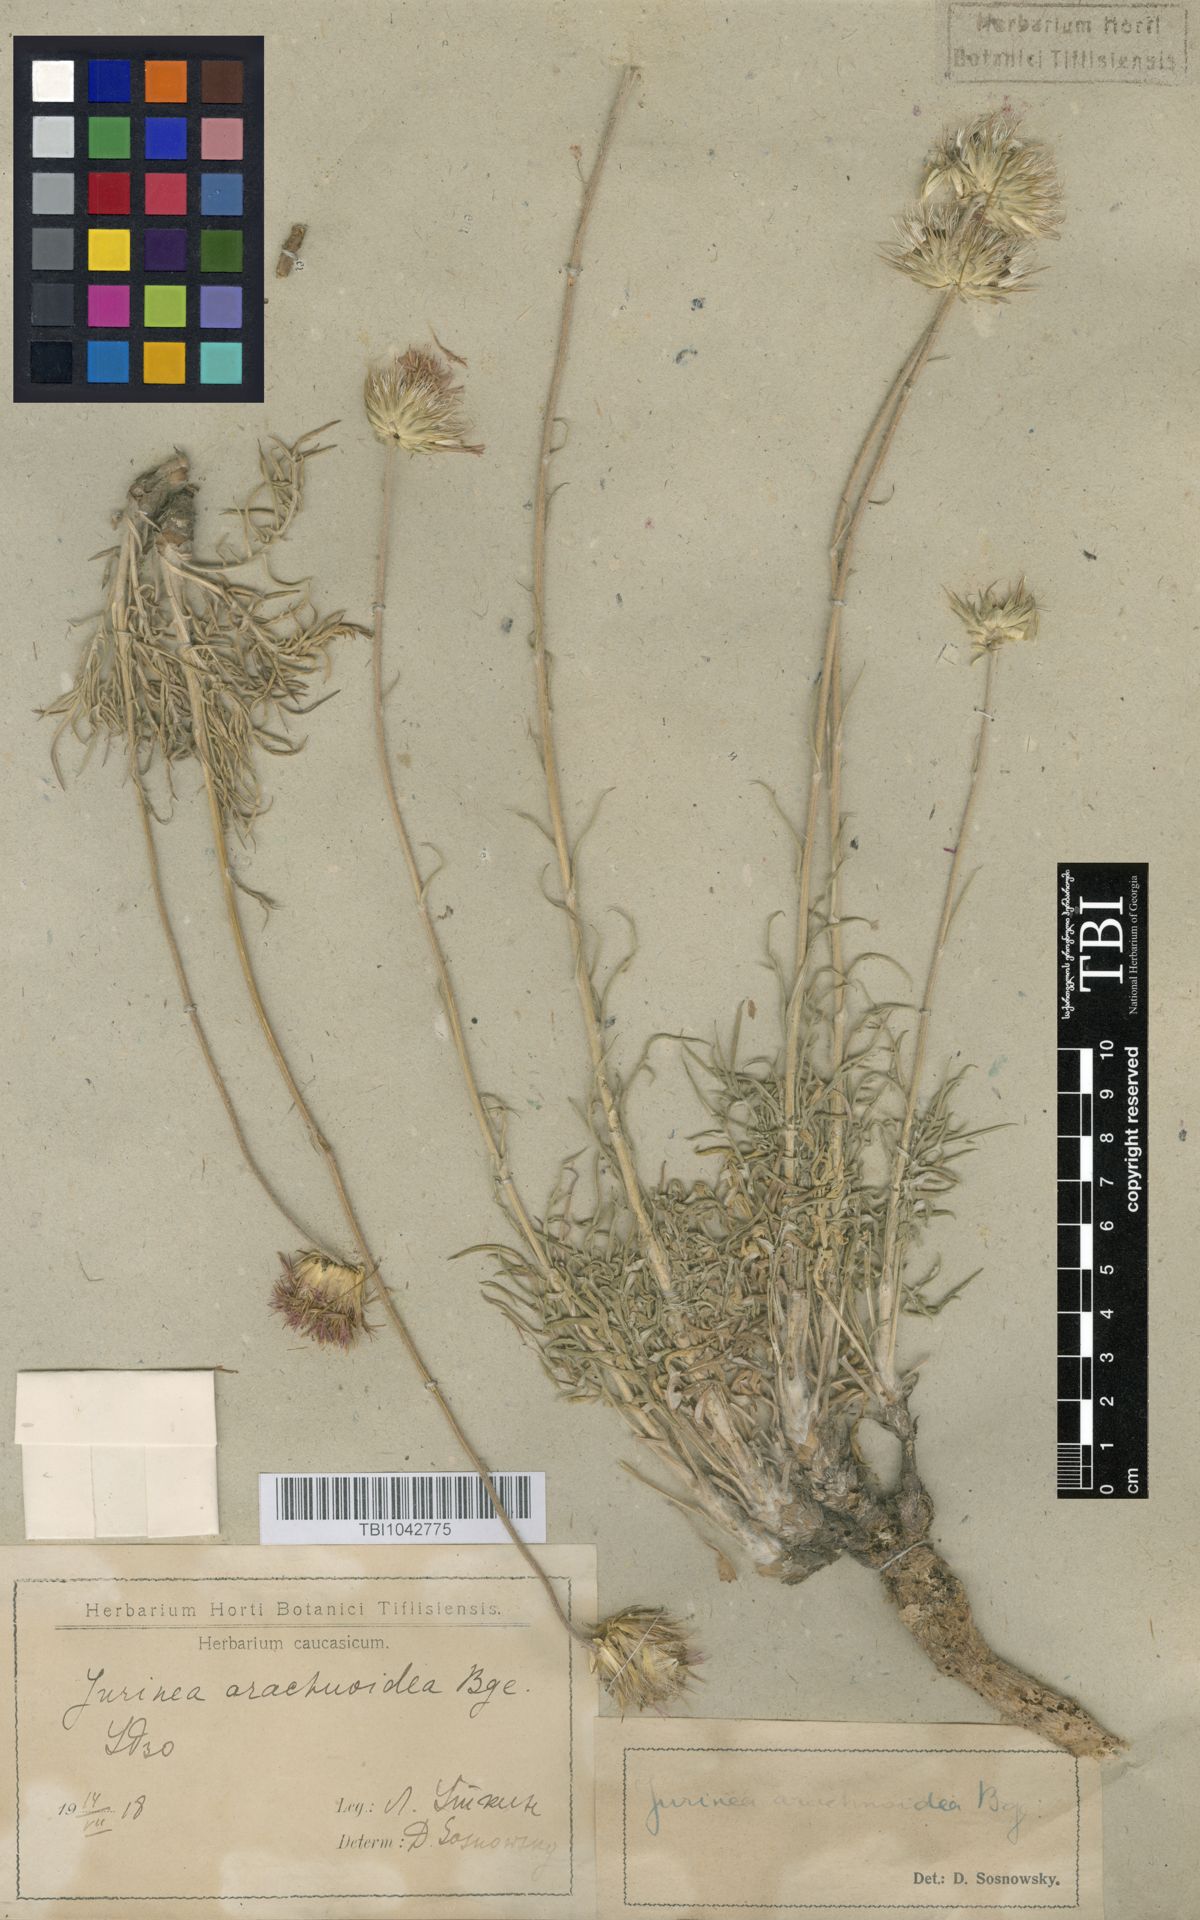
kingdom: Plantae
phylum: Tracheophyta
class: Magnoliopsida
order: Asterales
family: Asteraceae
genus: Jurinea
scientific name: Jurinea blanda
